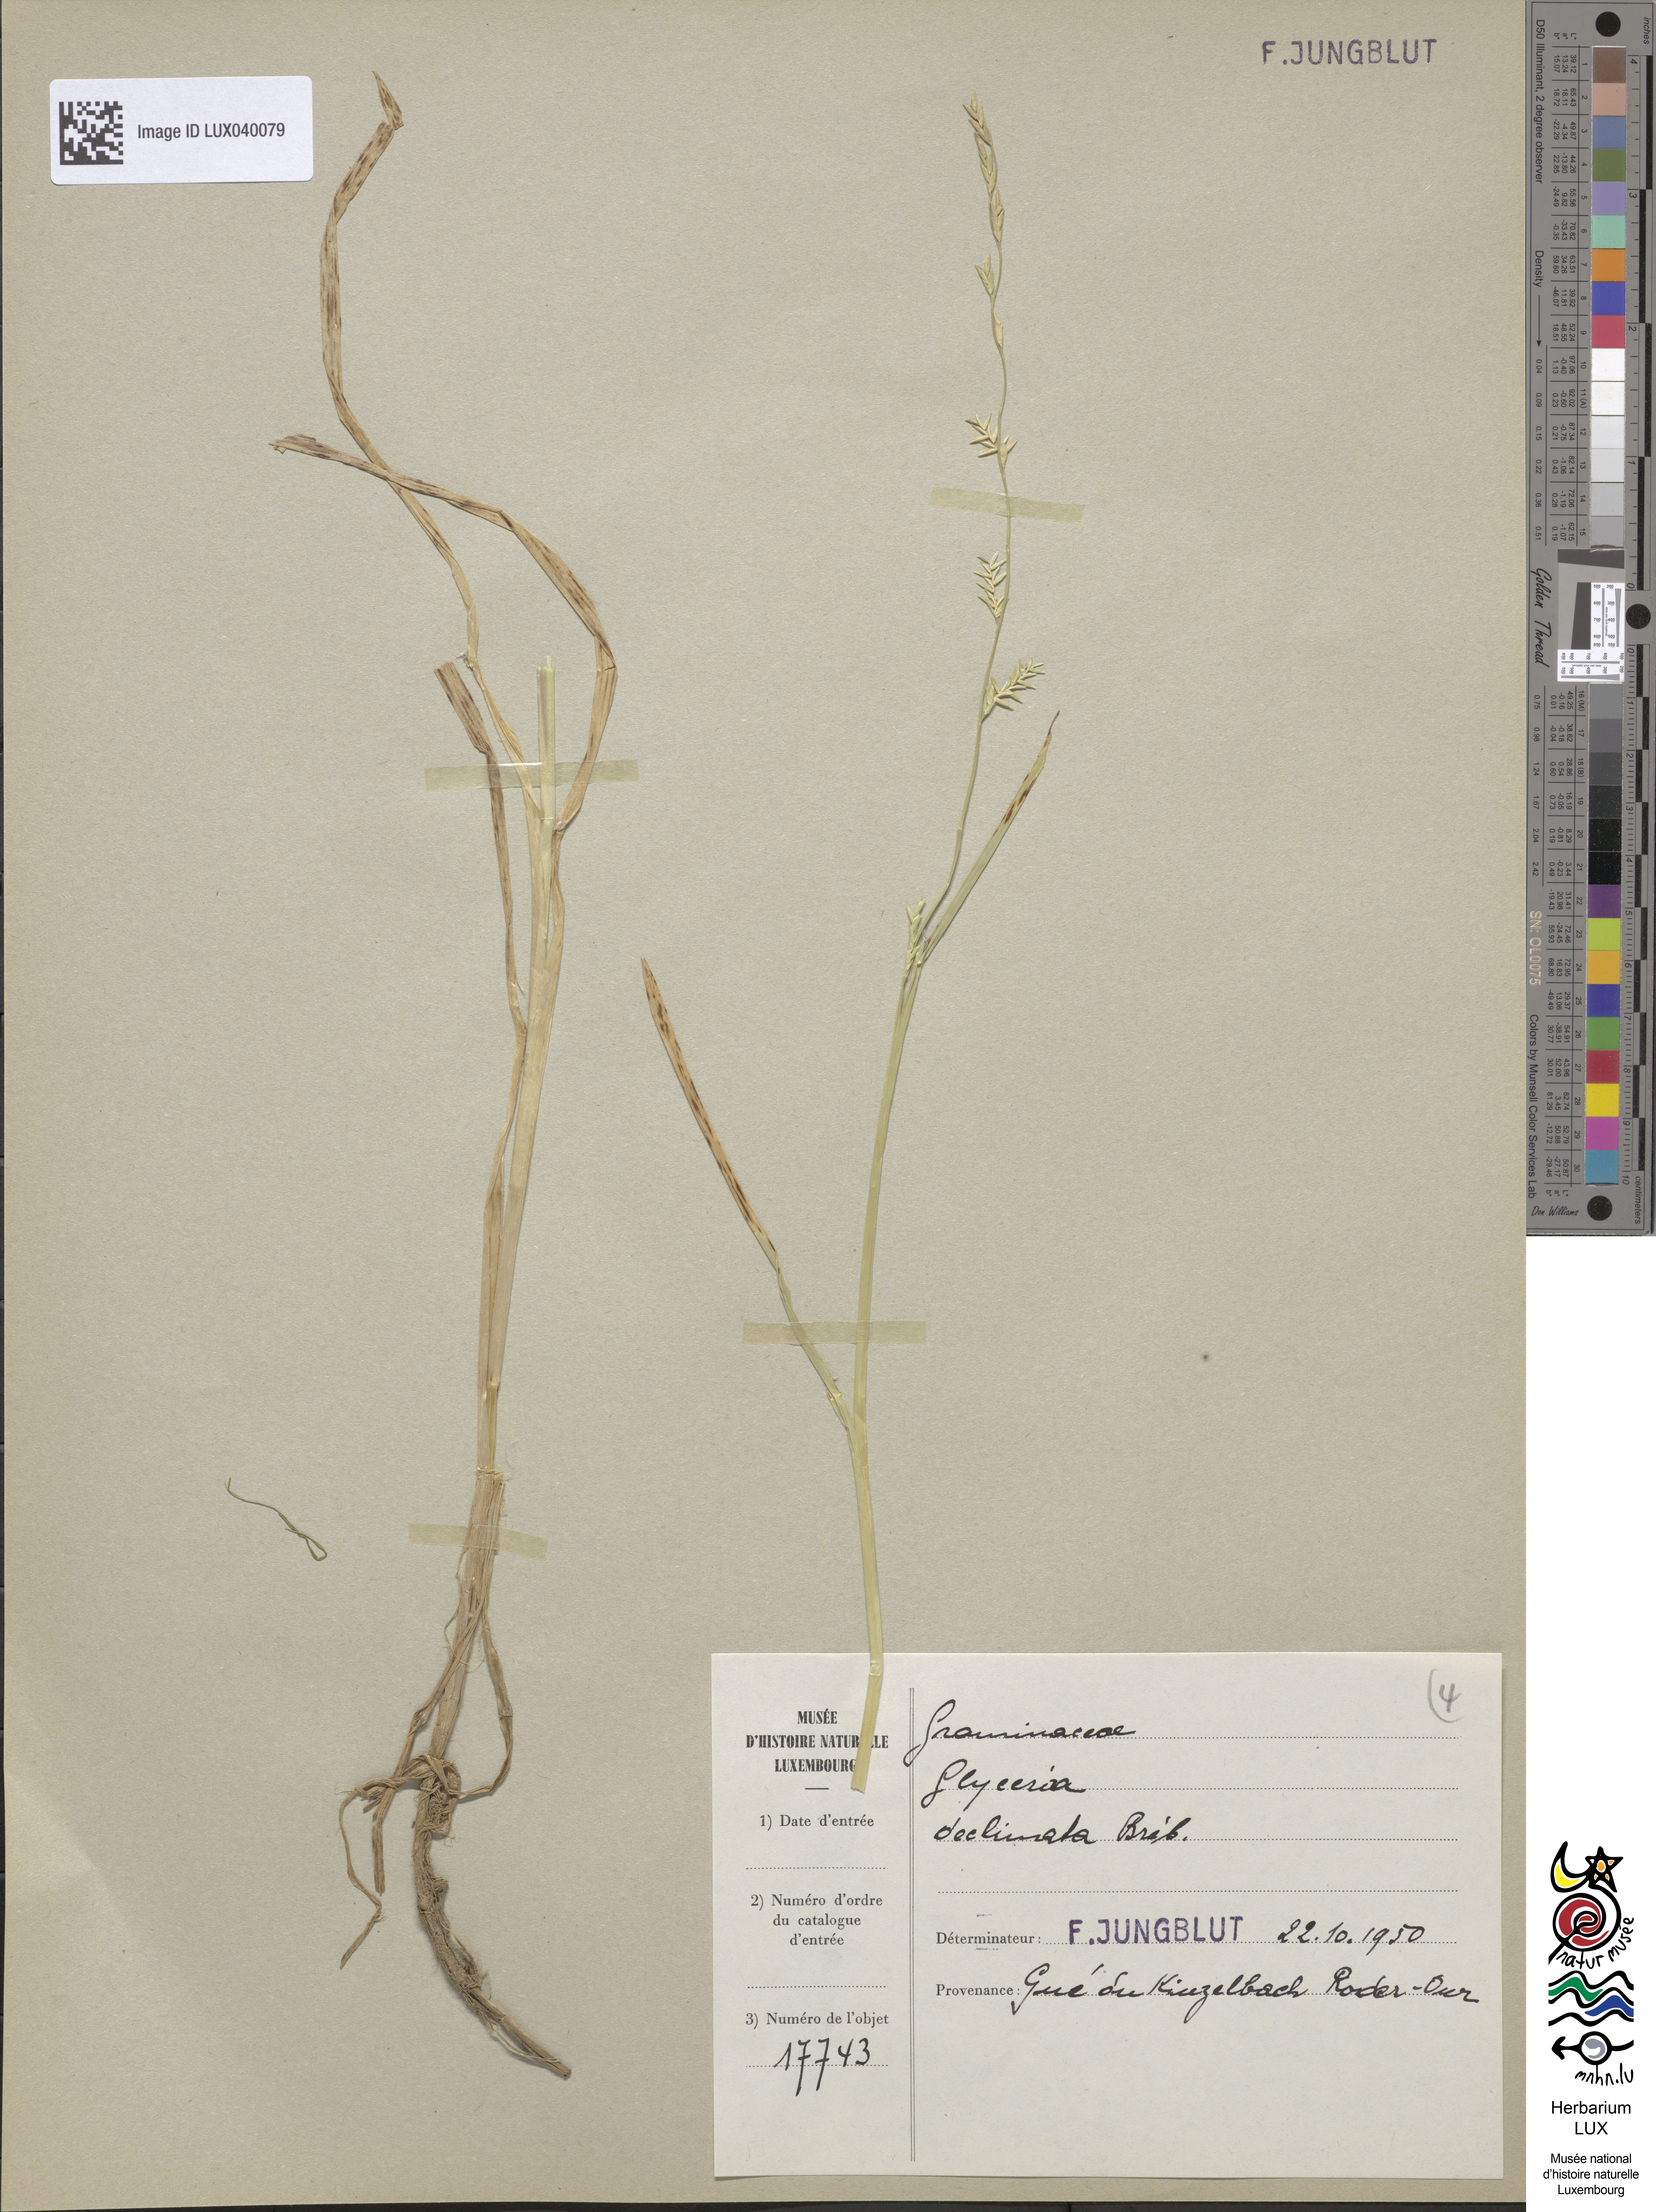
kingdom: Plantae
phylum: Tracheophyta
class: Liliopsida
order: Poales
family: Poaceae
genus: Glyceria
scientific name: Glyceria declinata
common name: Small sweet-grass
